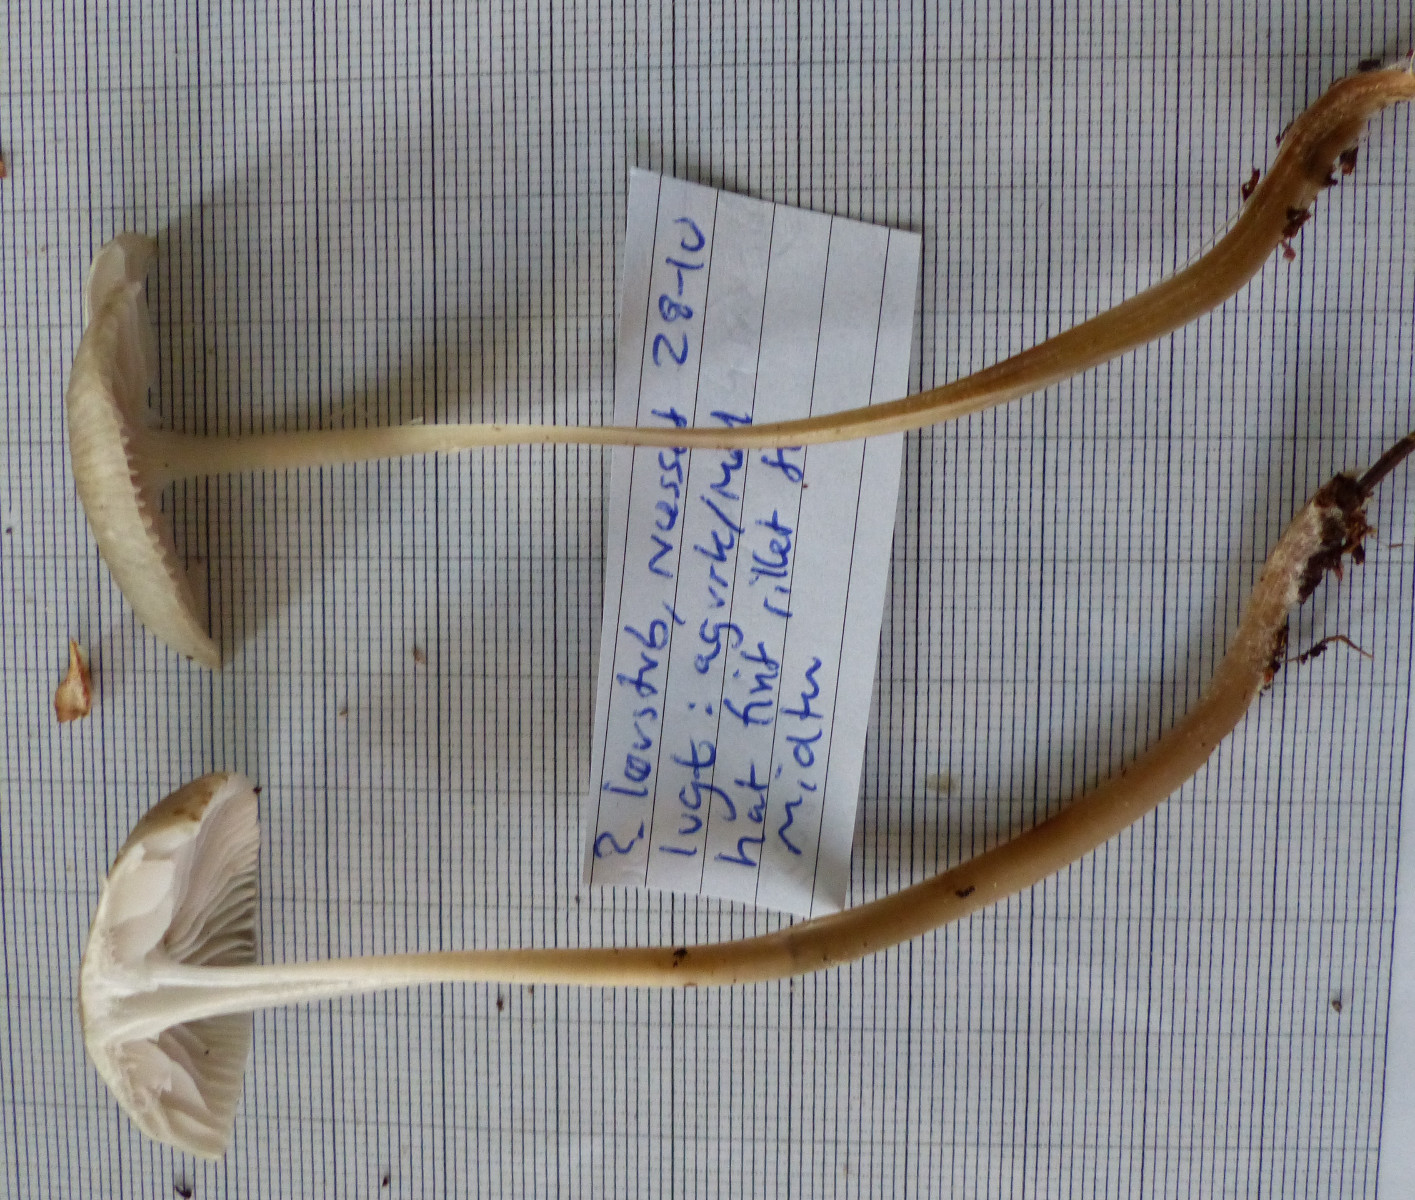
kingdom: Fungi
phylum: Basidiomycota
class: Agaricomycetes
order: Agaricales
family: Mycenaceae
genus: Mycena
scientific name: Mycena galericulata
